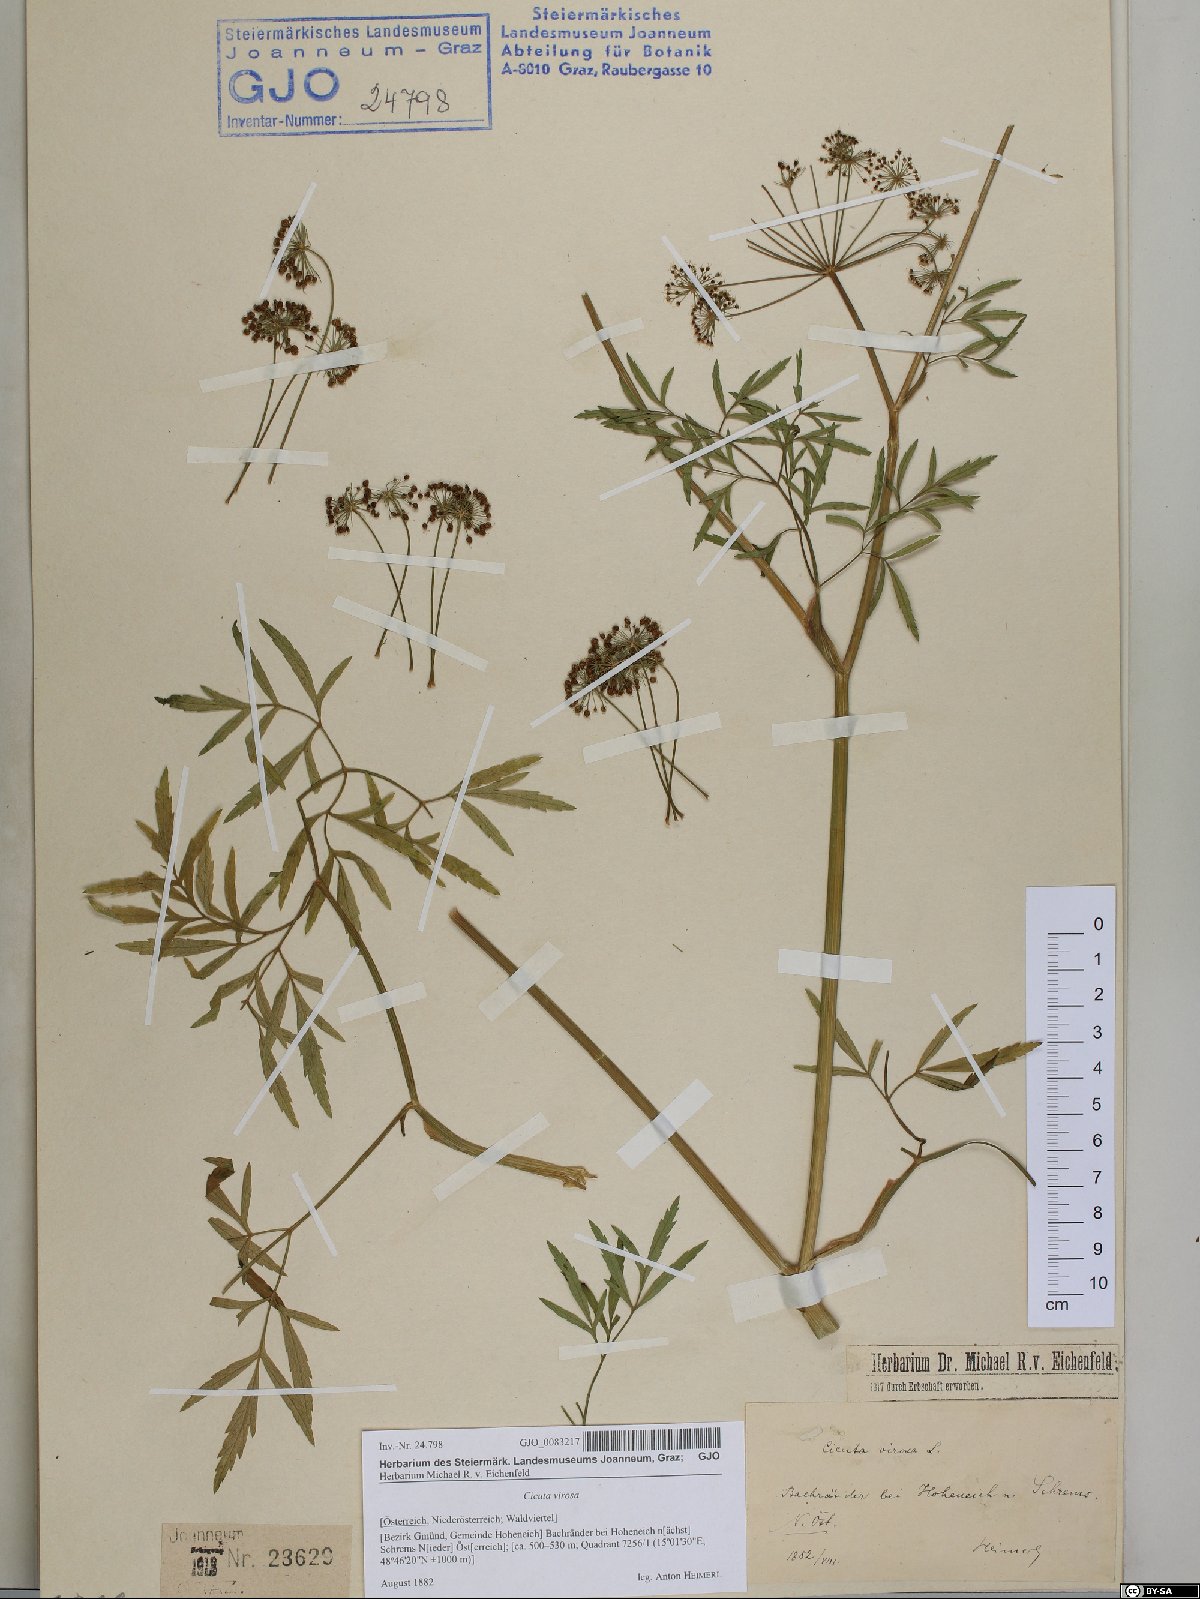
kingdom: Plantae
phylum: Tracheophyta
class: Magnoliopsida
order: Apiales
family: Apiaceae
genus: Cicuta
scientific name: Cicuta virosa
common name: Cowbane
